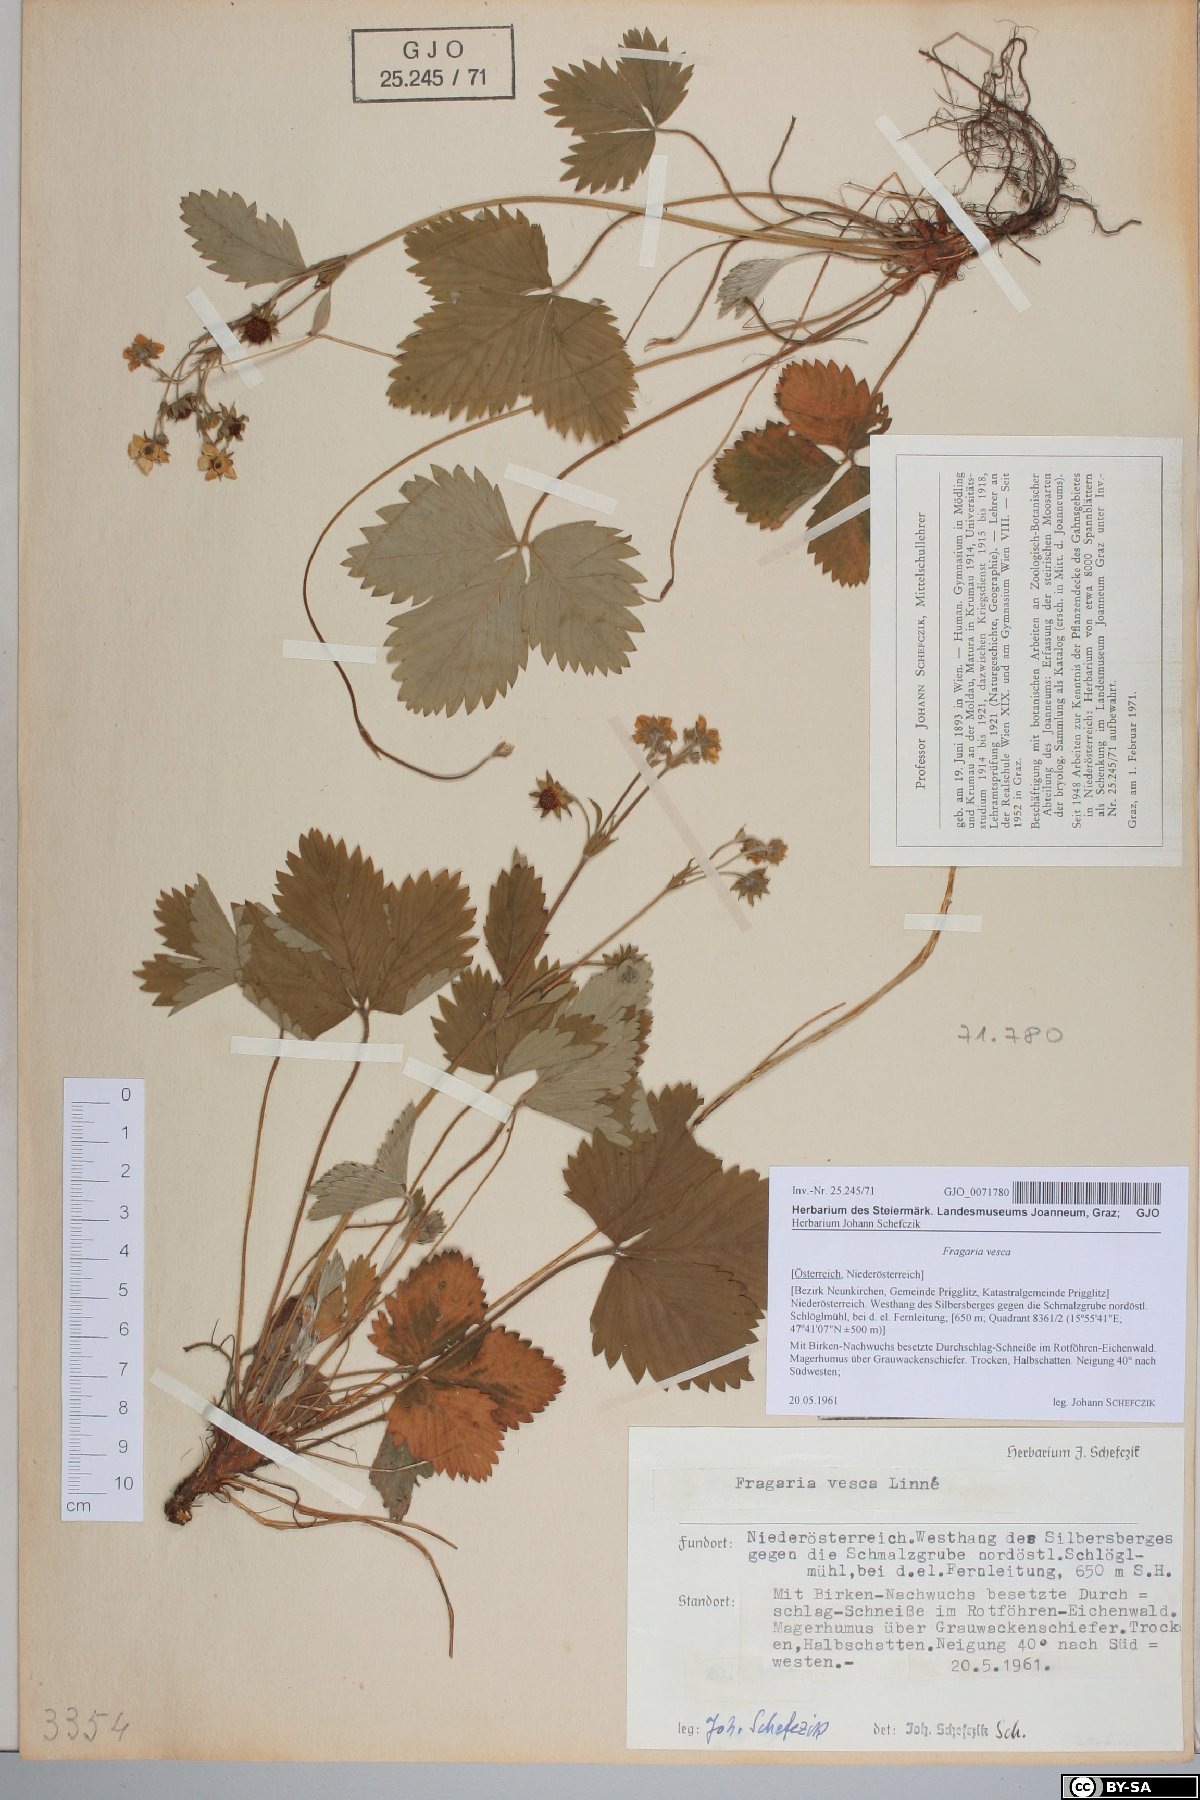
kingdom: Plantae
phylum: Tracheophyta
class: Magnoliopsida
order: Rosales
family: Rosaceae
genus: Fragaria
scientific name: Fragaria vesca
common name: Wild strawberry
